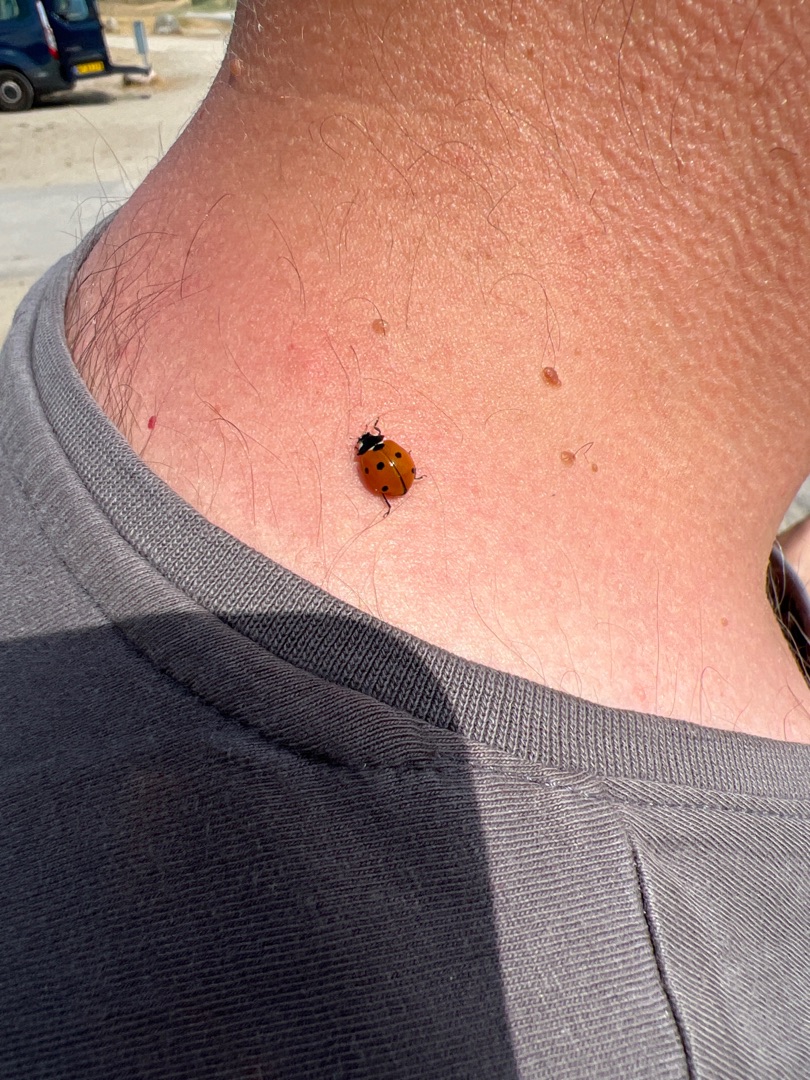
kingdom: Animalia
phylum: Arthropoda
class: Insecta
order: Coleoptera
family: Coccinellidae
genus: Coccinella
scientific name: Coccinella septempunctata
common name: Syvplettet mariehøne
